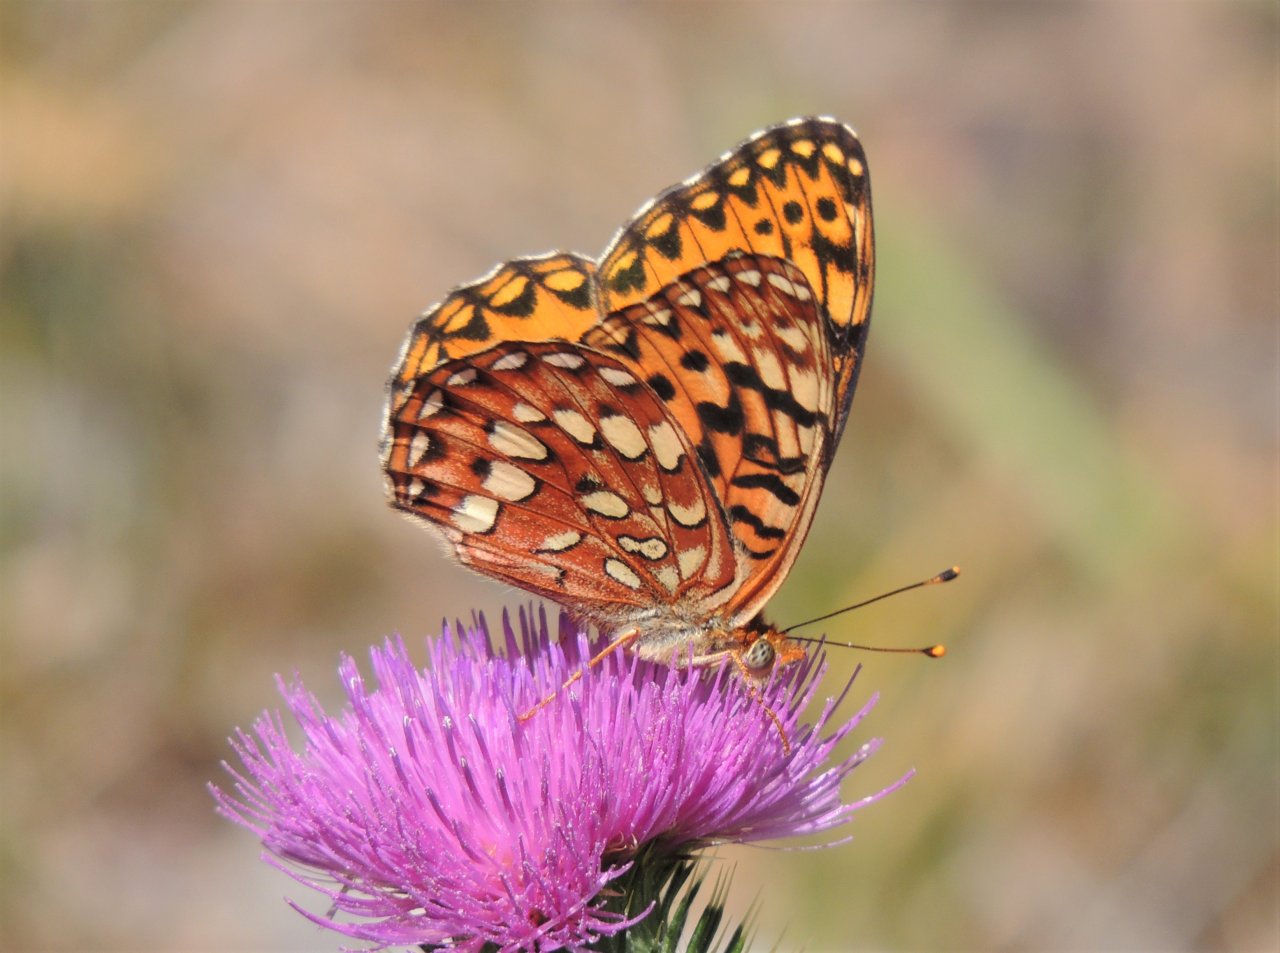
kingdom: Animalia
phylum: Arthropoda
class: Insecta
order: Lepidoptera
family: Nymphalidae
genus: Speyeria
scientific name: Speyeria hydaspe
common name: Hydaspe Fritillary
